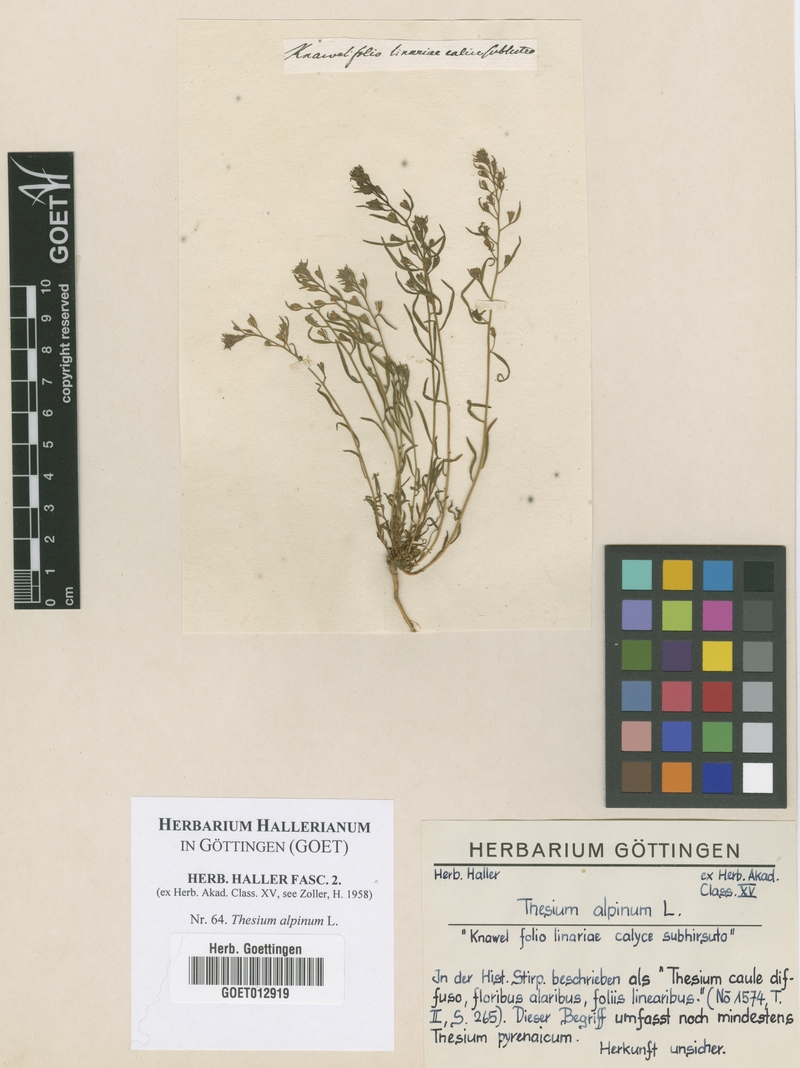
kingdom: Plantae
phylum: Tracheophyta
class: Magnoliopsida
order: Santalales
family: Thesiaceae
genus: Thesium
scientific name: Thesium alpinum
